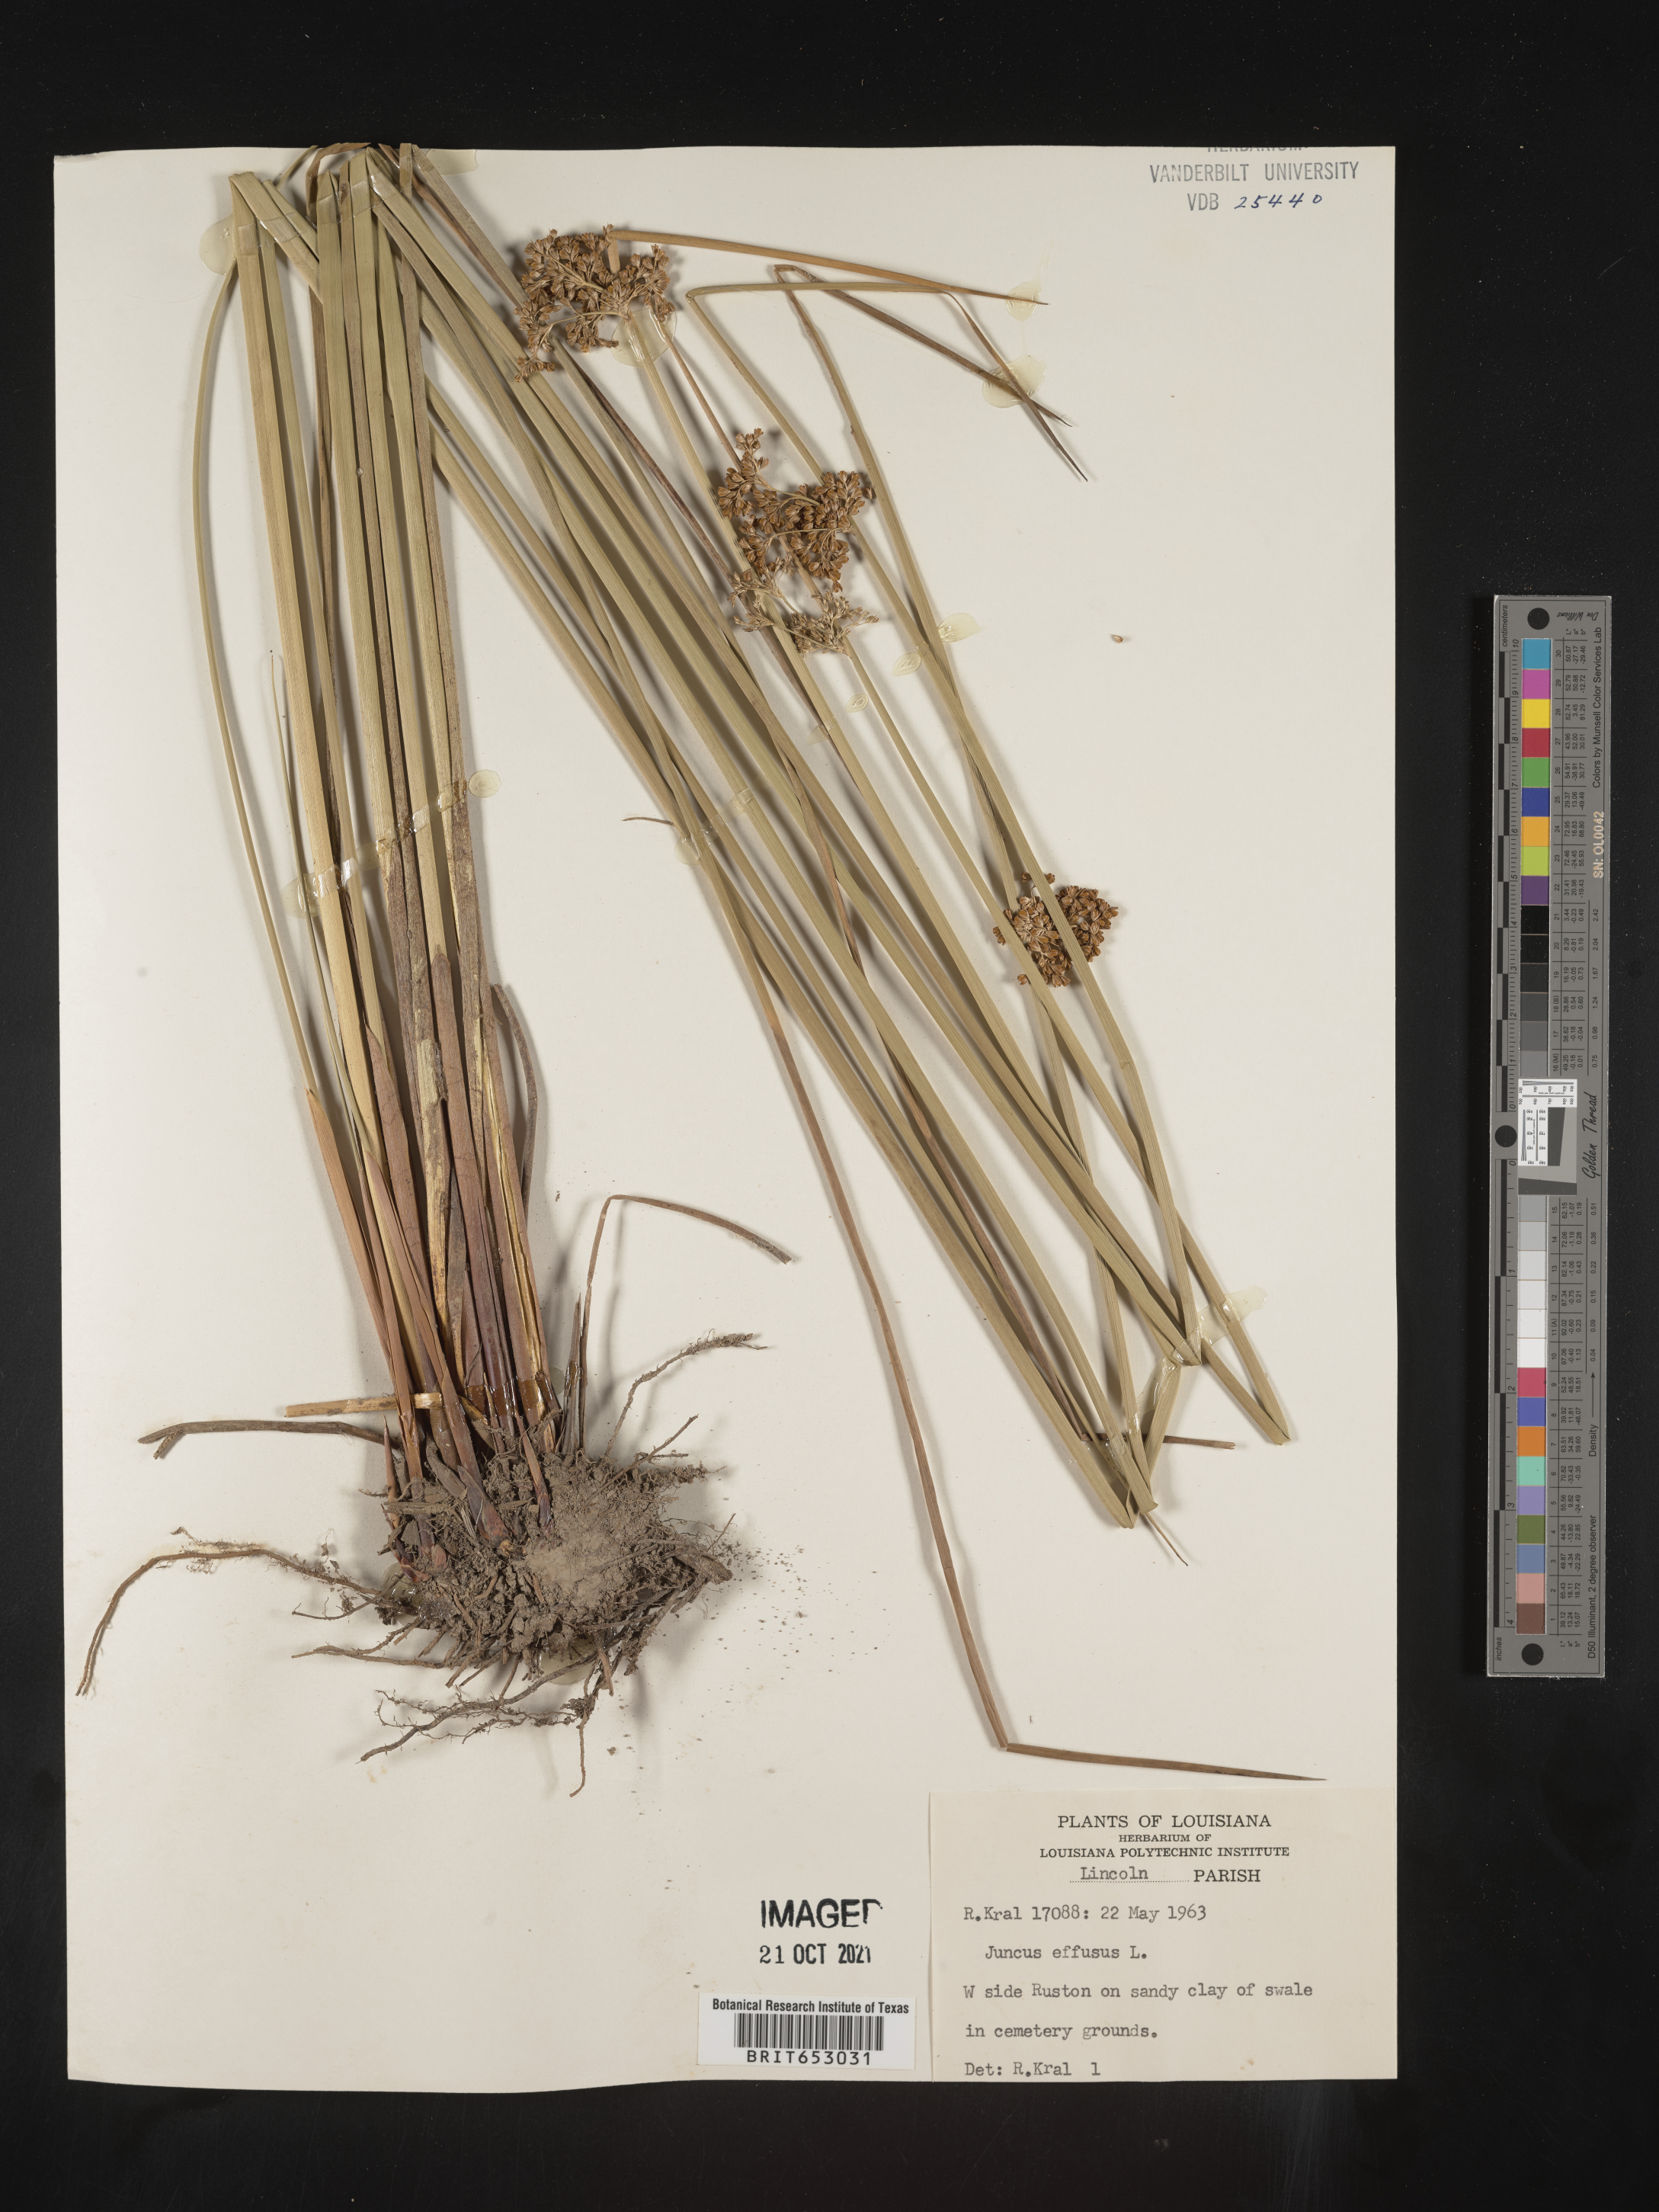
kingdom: Plantae
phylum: Tracheophyta
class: Liliopsida
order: Poales
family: Juncaceae
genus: Juncus
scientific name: Juncus effusus
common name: Soft rush
